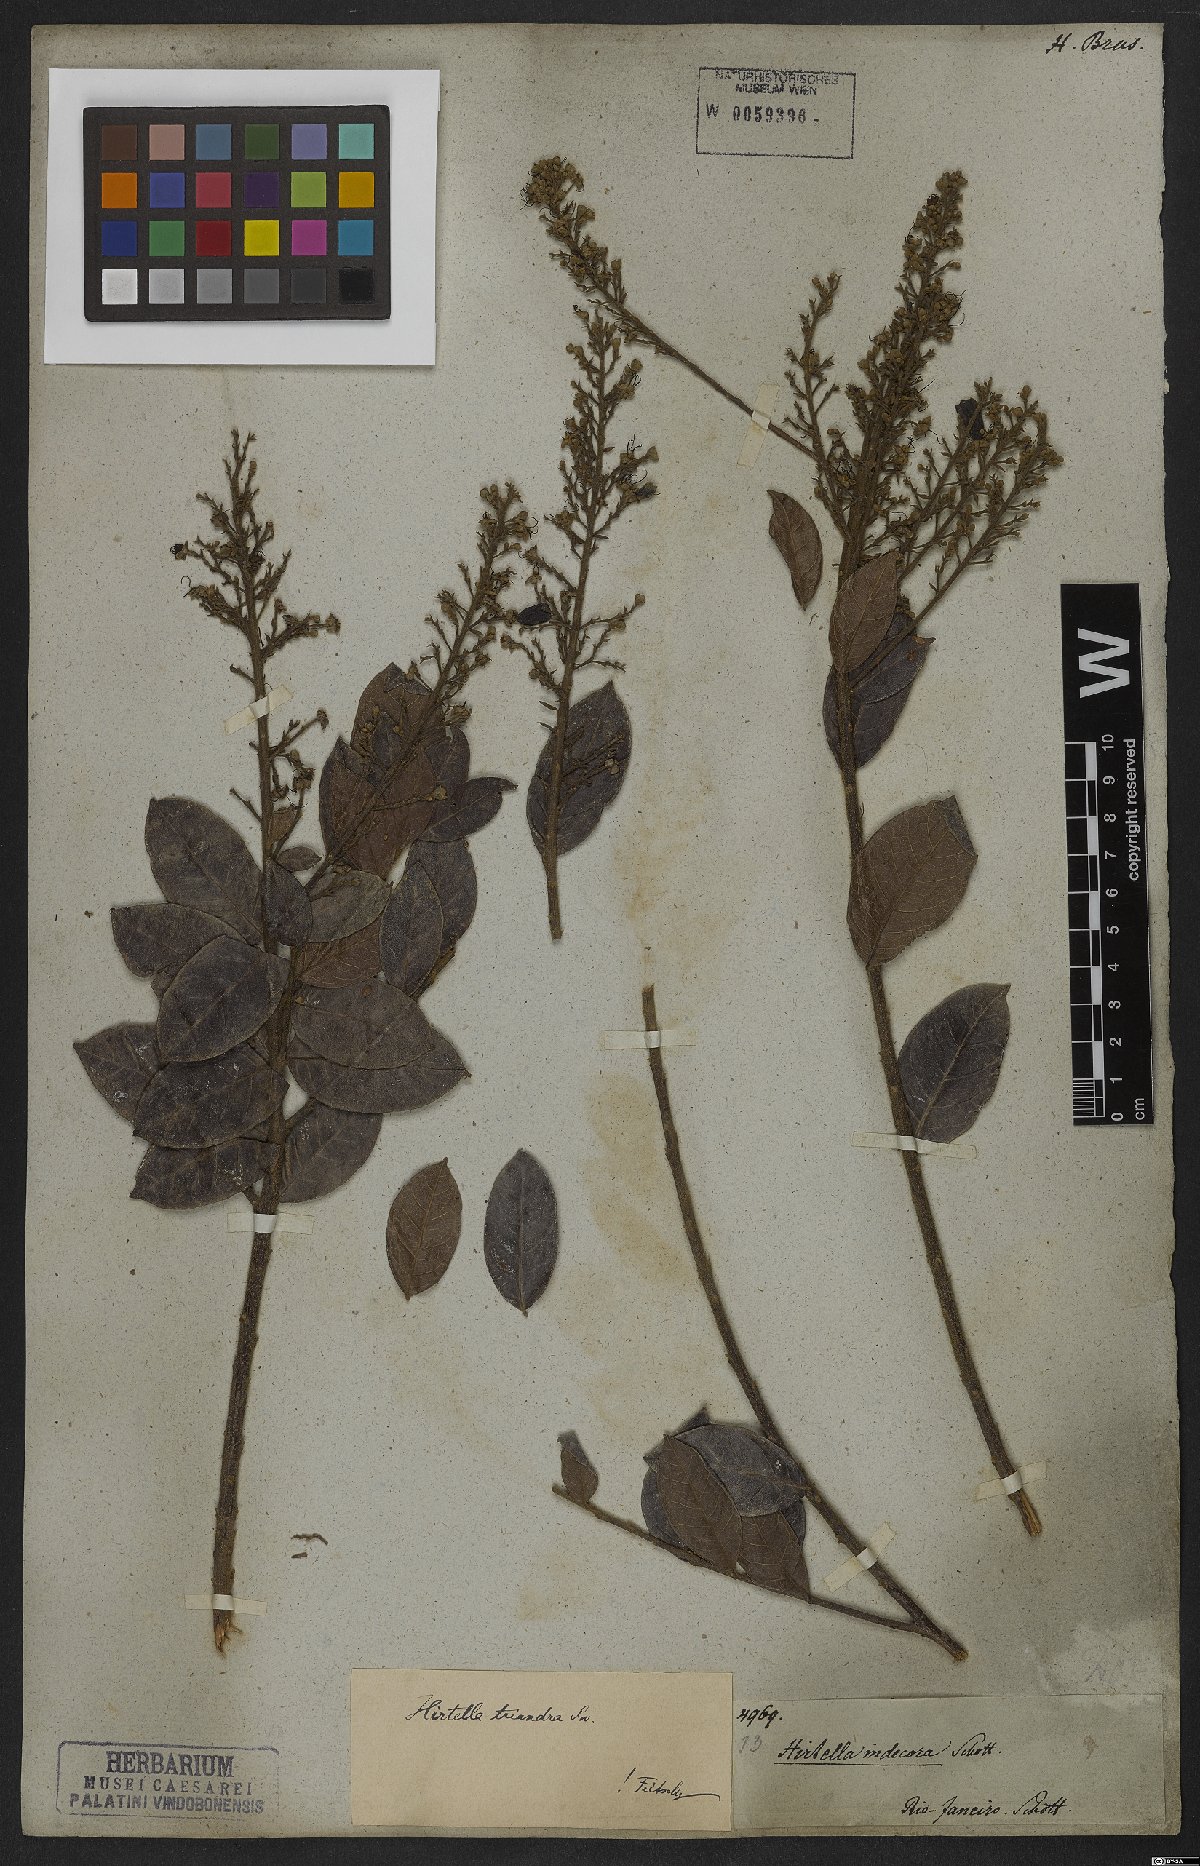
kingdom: Plantae
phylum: Tracheophyta
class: Magnoliopsida
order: Malpighiales
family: Chrysobalanaceae
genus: Hirtella
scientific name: Hirtella triandra
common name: Hairy plum
